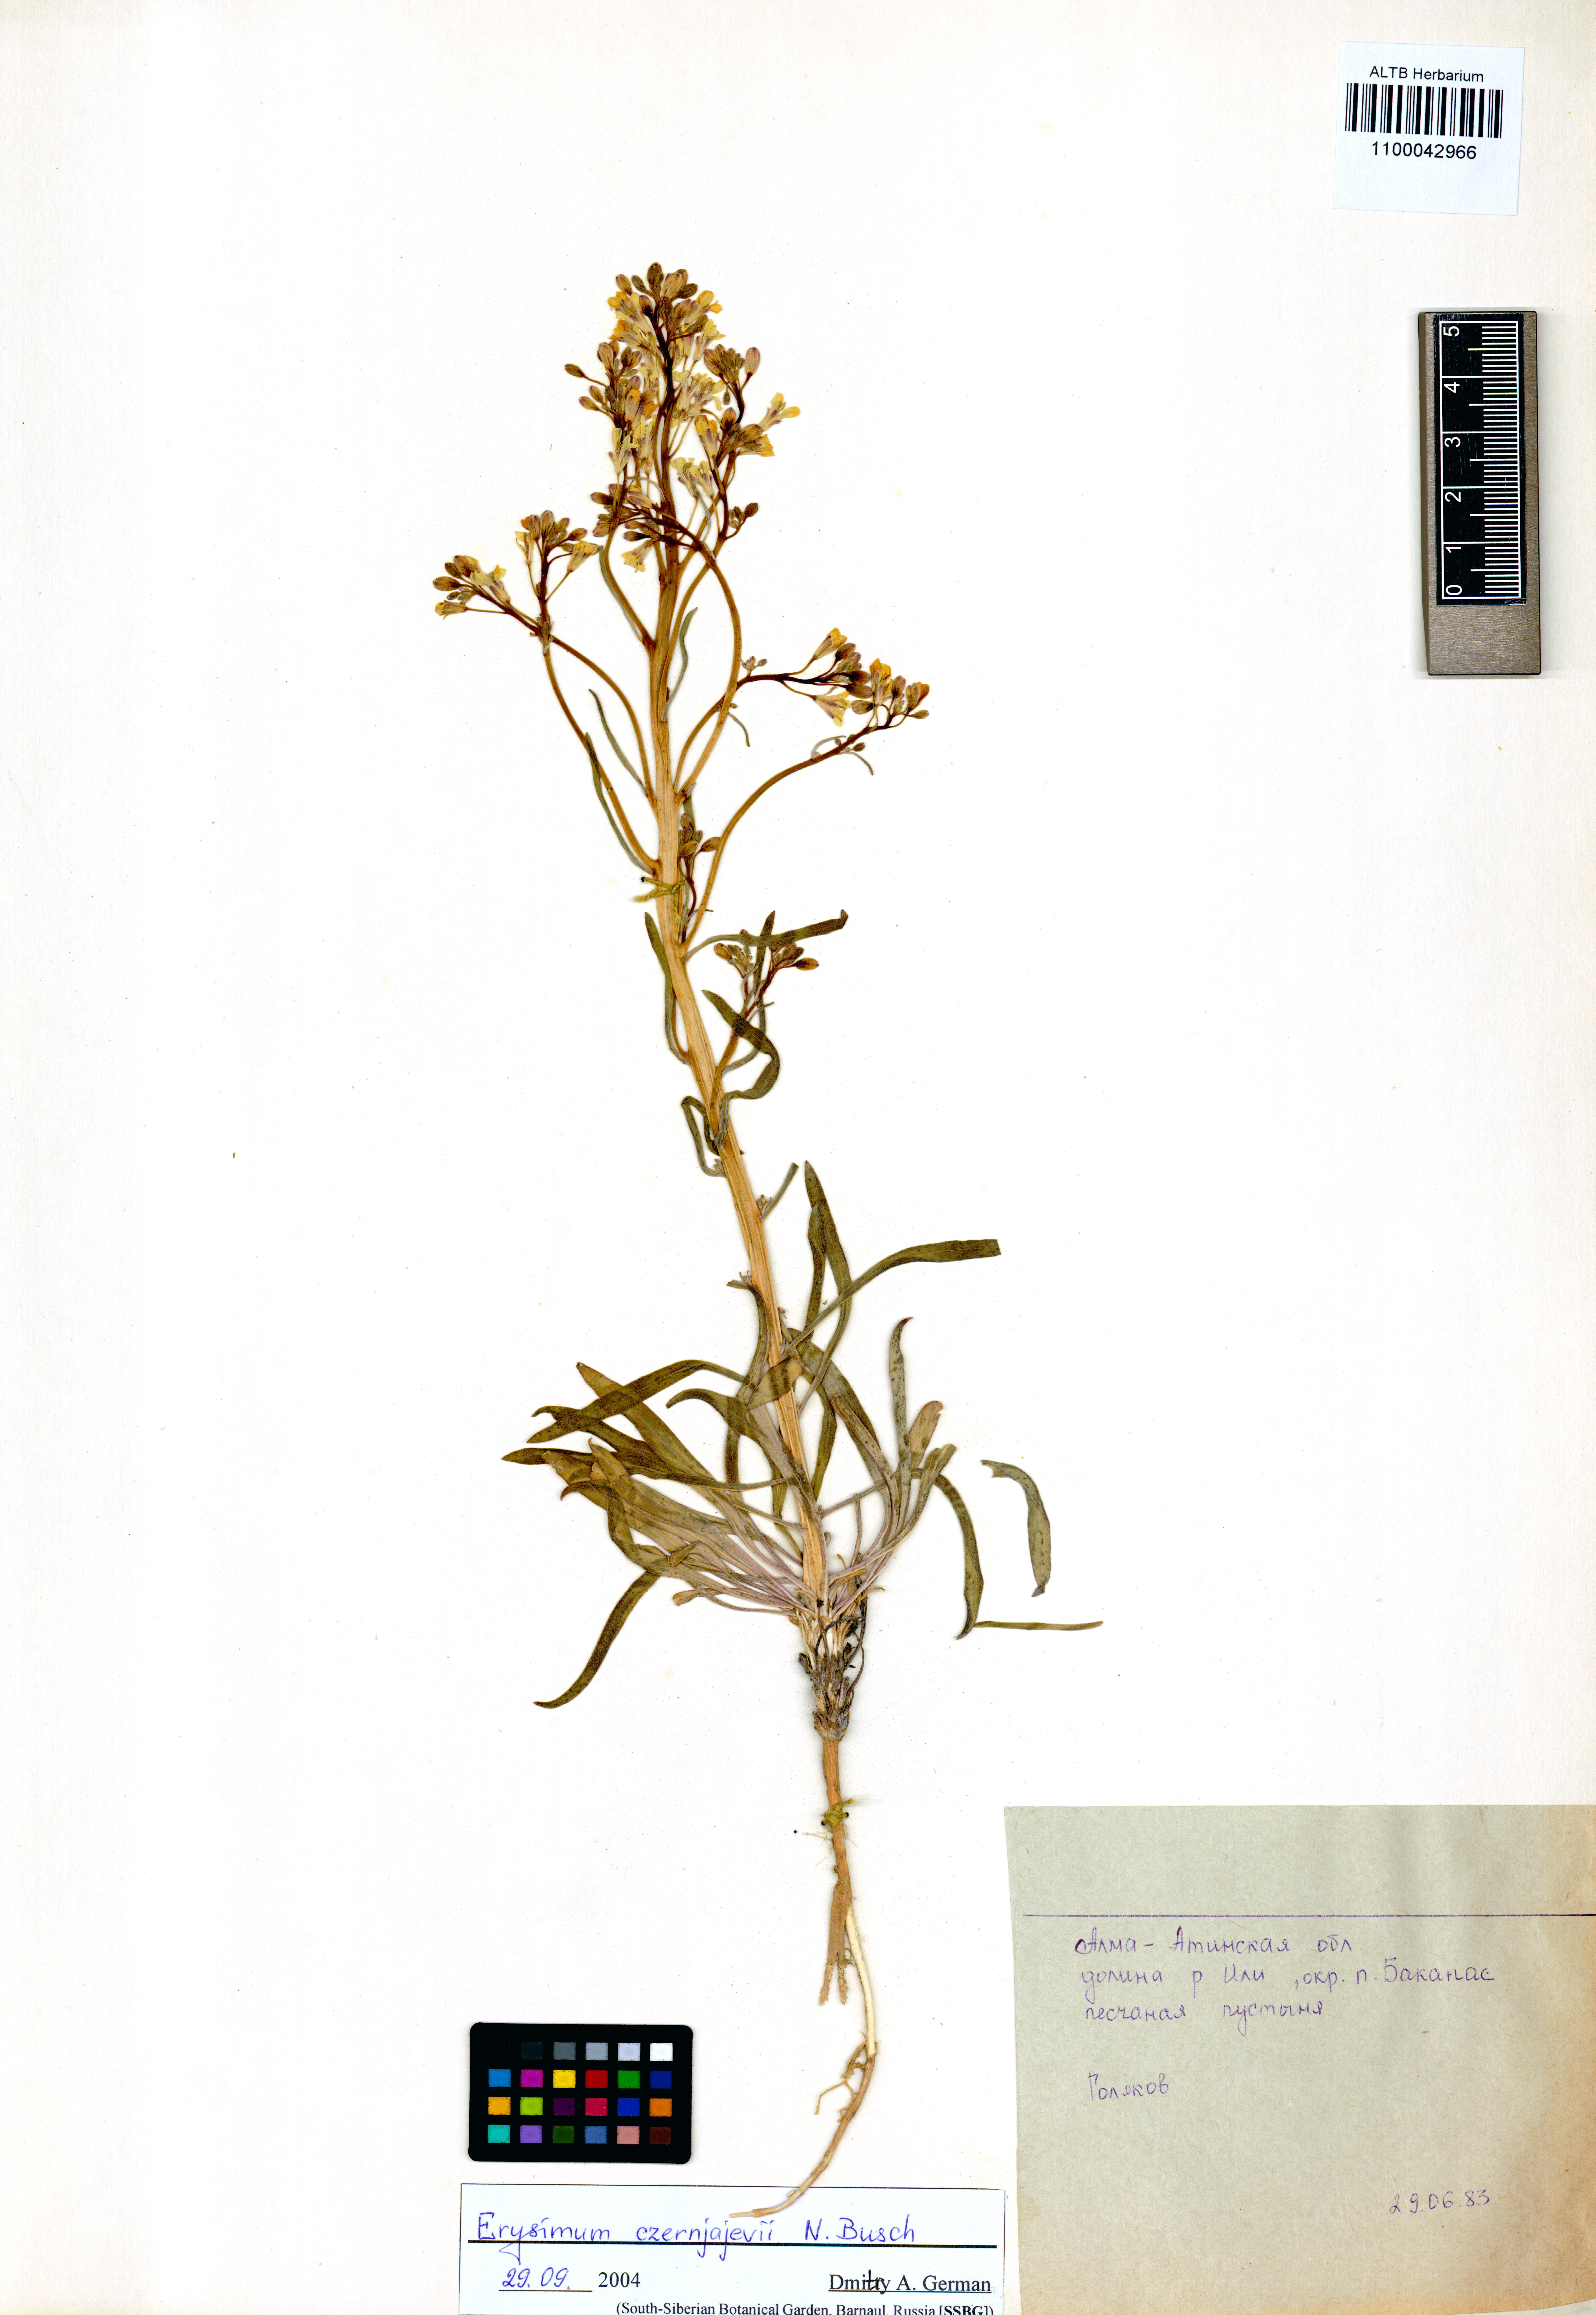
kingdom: Plantae
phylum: Tracheophyta
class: Magnoliopsida
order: Brassicales
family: Brassicaceae
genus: Erysimum
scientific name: Erysimum czernjajevii
